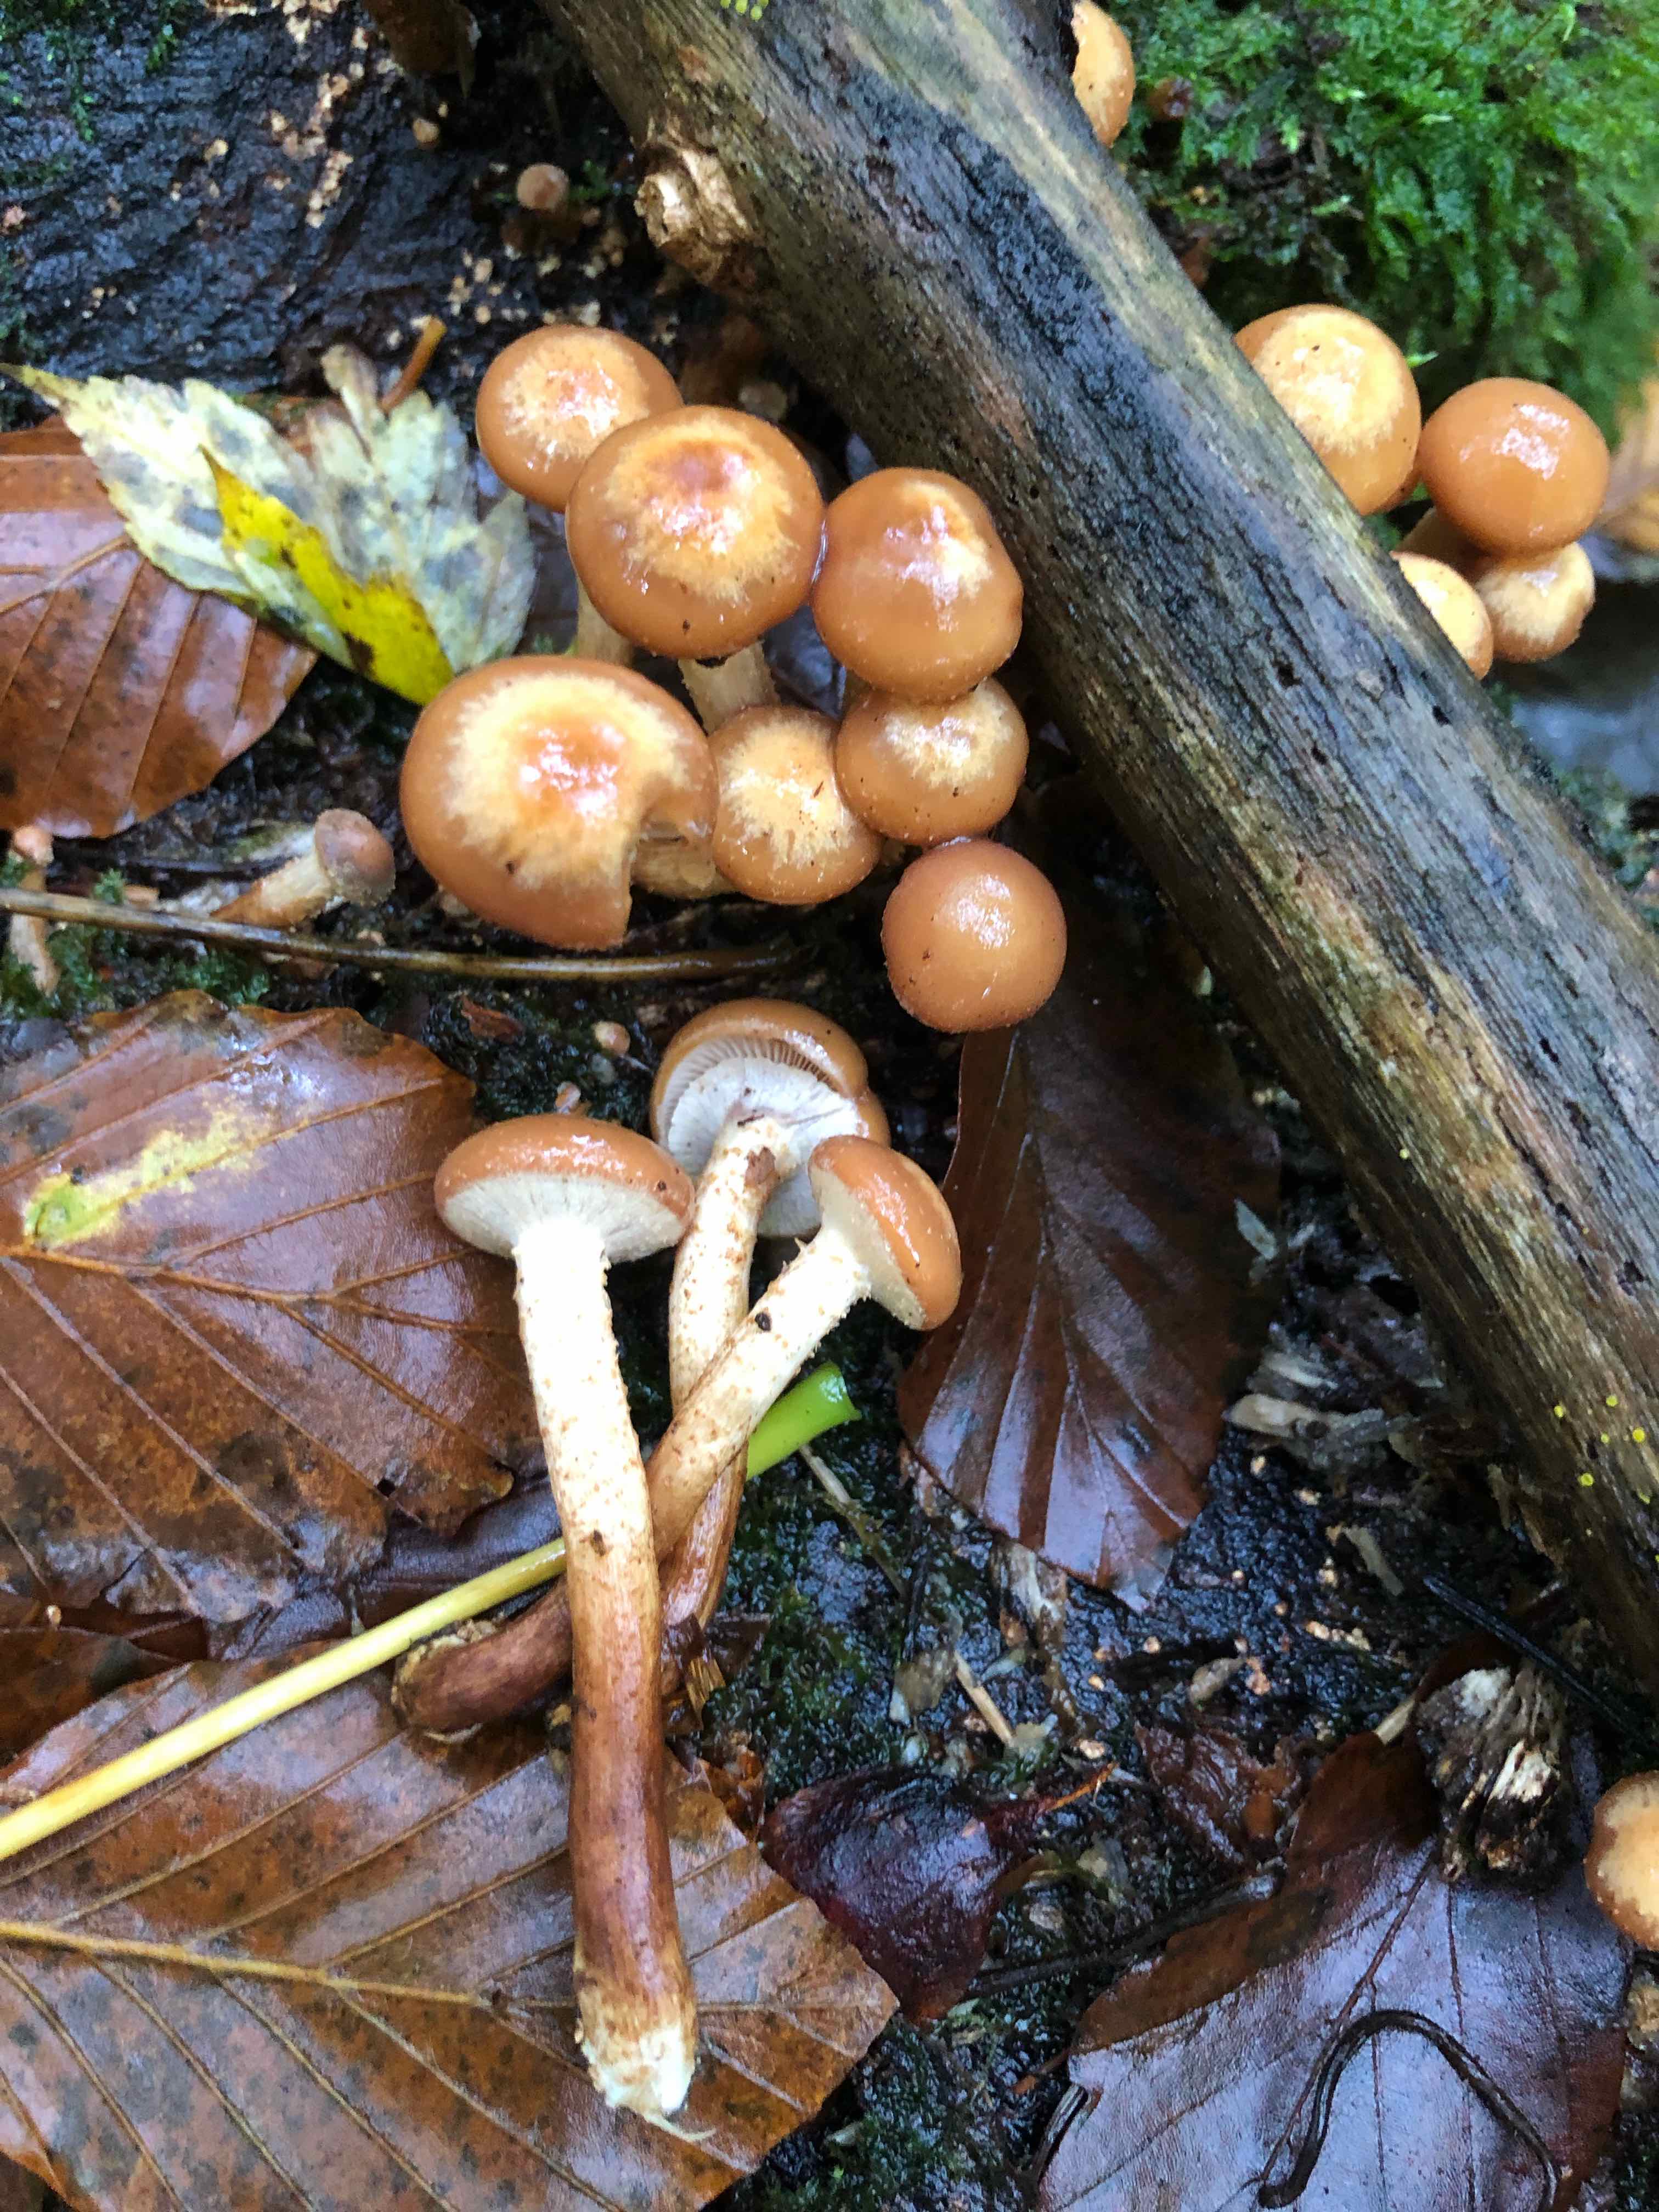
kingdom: Fungi
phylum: Basidiomycota
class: Agaricomycetes
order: Agaricales
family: Strophariaceae
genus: Kuehneromyces
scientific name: Kuehneromyces mutabilis
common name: foranderlig skælhat
